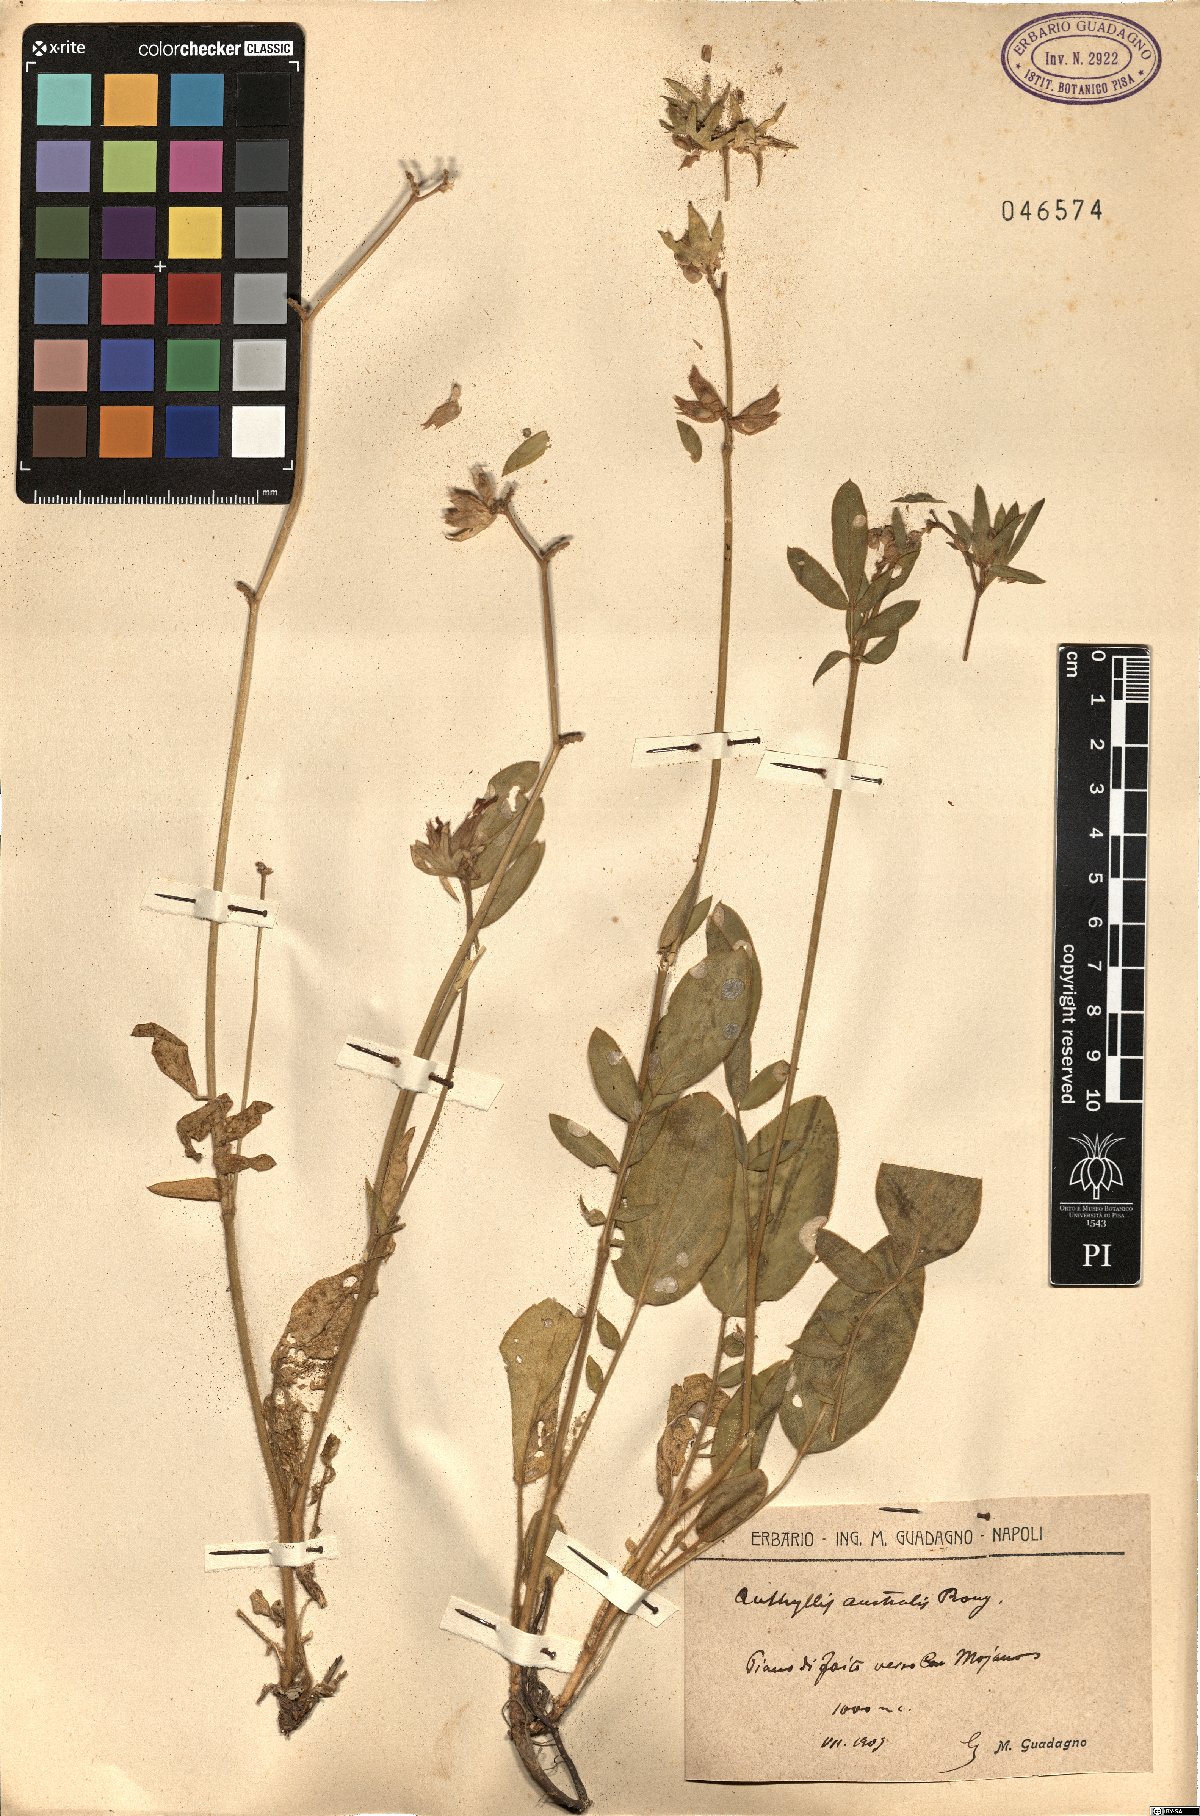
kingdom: Plantae
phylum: Tracheophyta
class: Magnoliopsida
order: Fabales
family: Fabaceae
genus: Anthyllis
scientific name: Anthyllis
